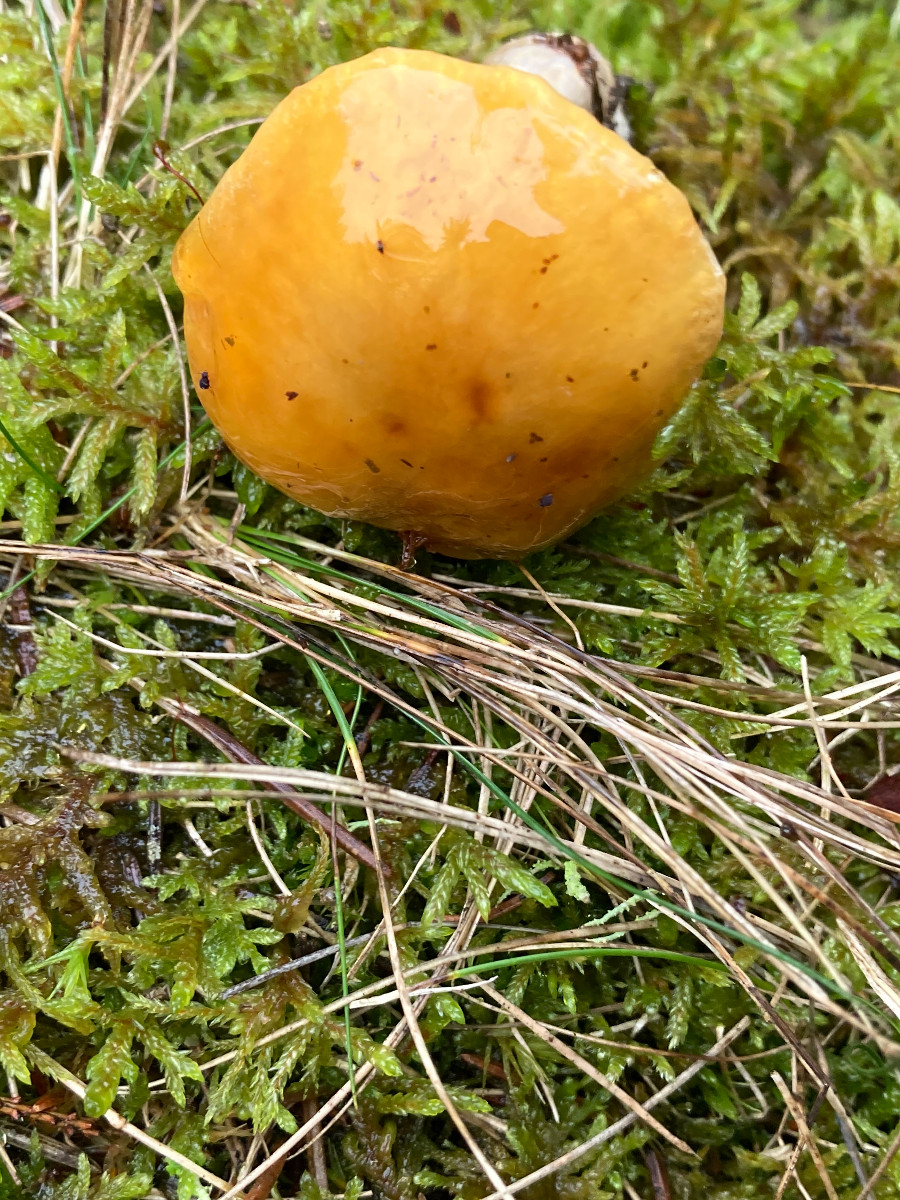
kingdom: Fungi
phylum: Basidiomycota
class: Agaricomycetes
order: Agaricales
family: Cortinariaceae
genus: Cortinarius
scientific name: Cortinarius delibutus
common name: gul slørhat
